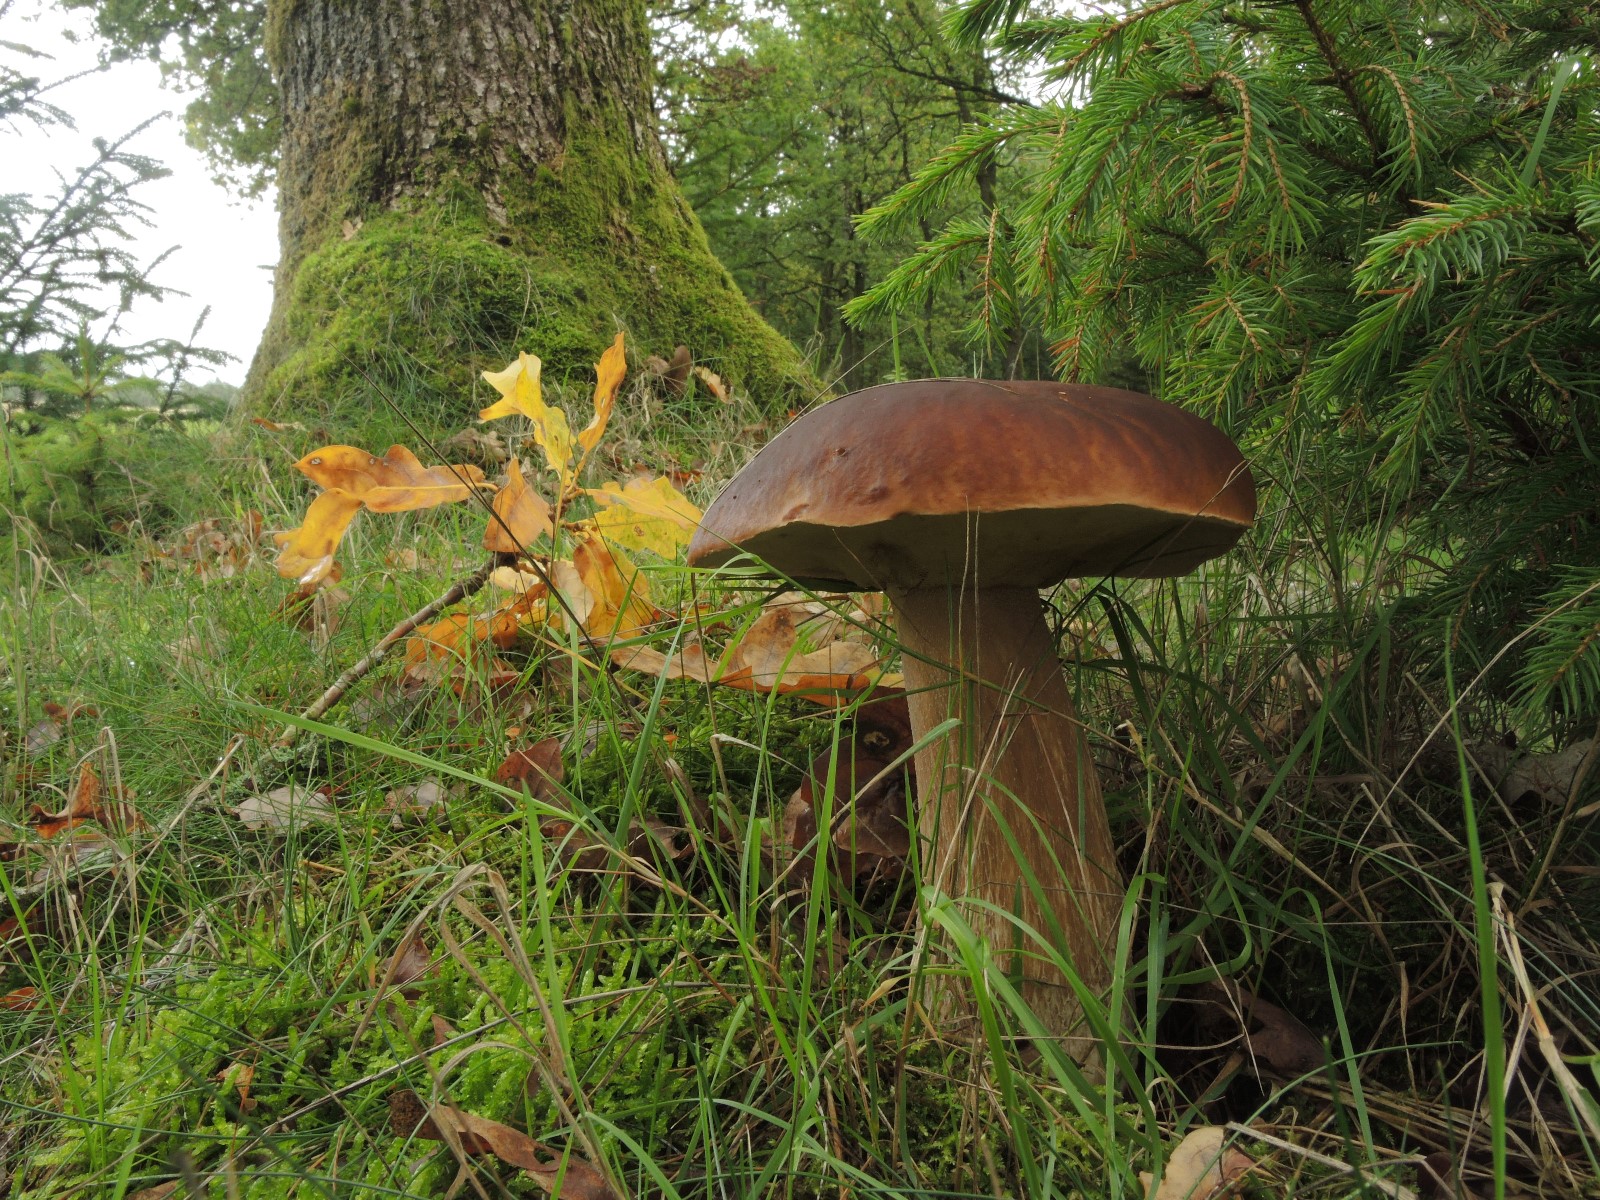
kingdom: Fungi
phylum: Basidiomycota
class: Agaricomycetes
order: Boletales
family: Boletaceae
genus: Boletus
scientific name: Boletus edulis
